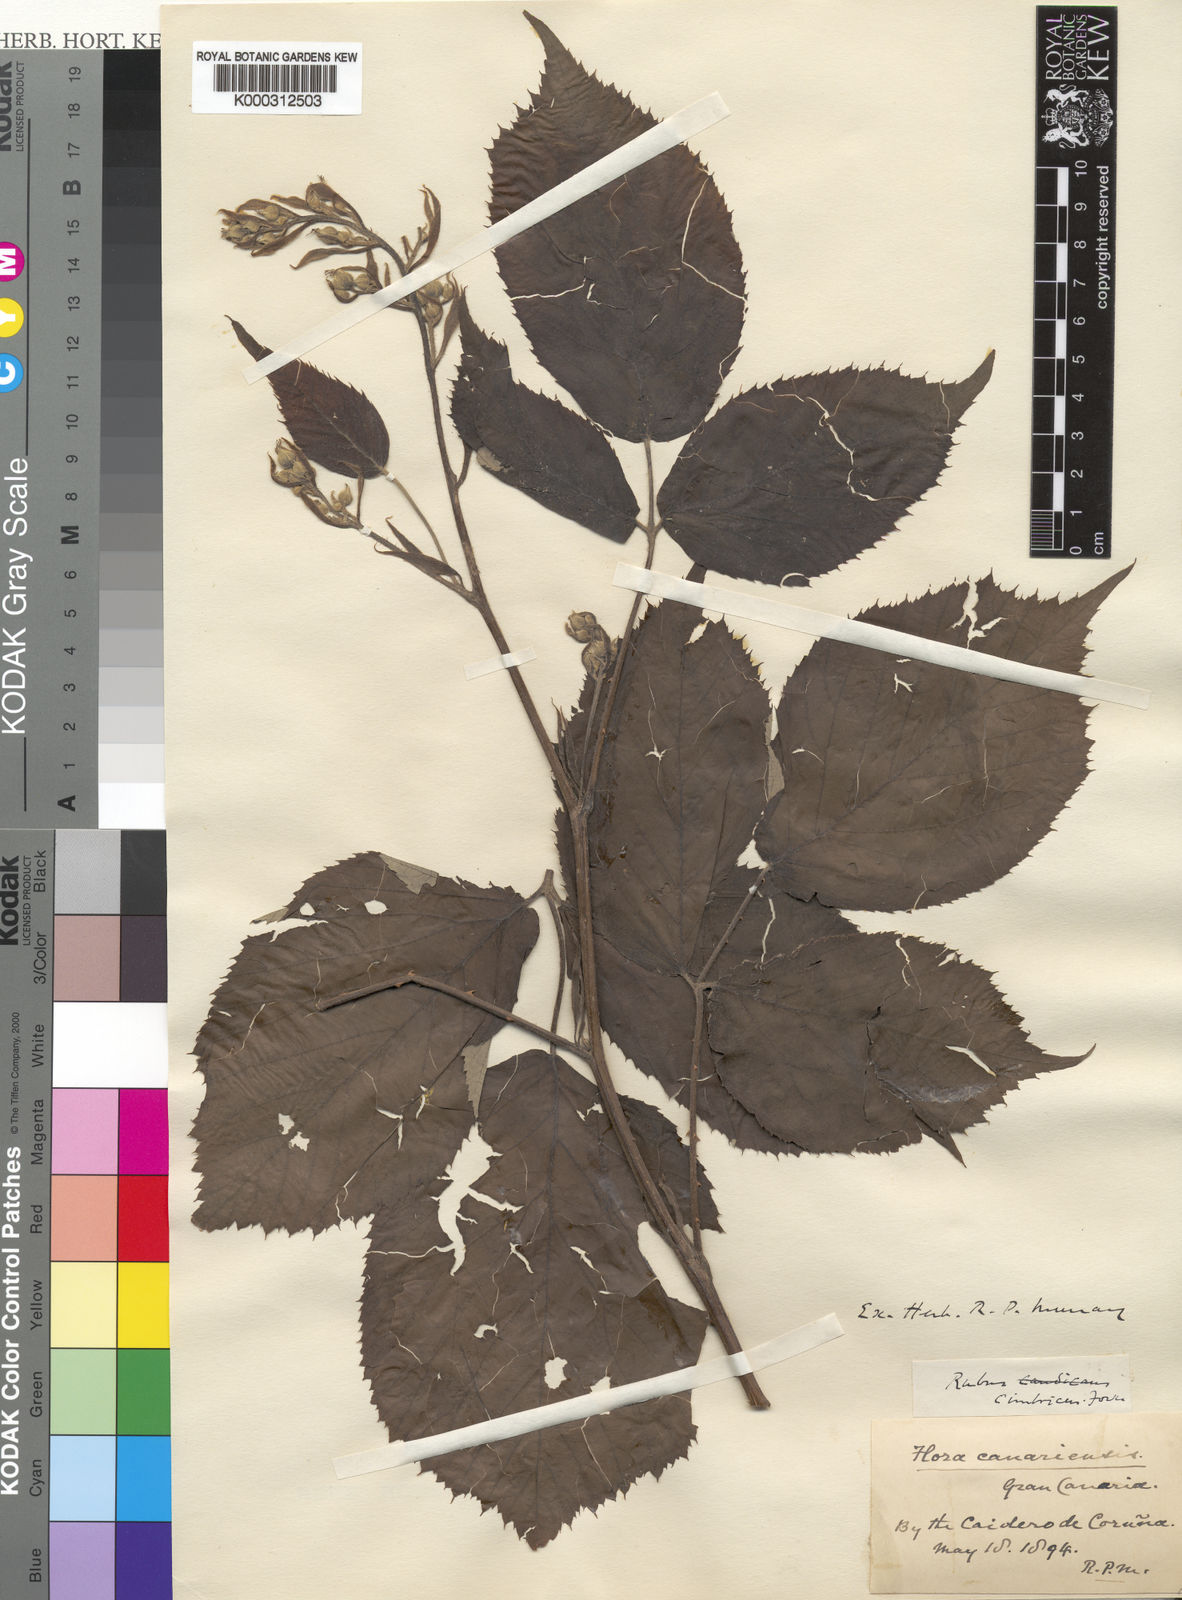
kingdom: Plantae
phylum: Tracheophyta
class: Magnoliopsida
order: Rosales
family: Rosaceae
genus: Rubus
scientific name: Rubus cimbricus
